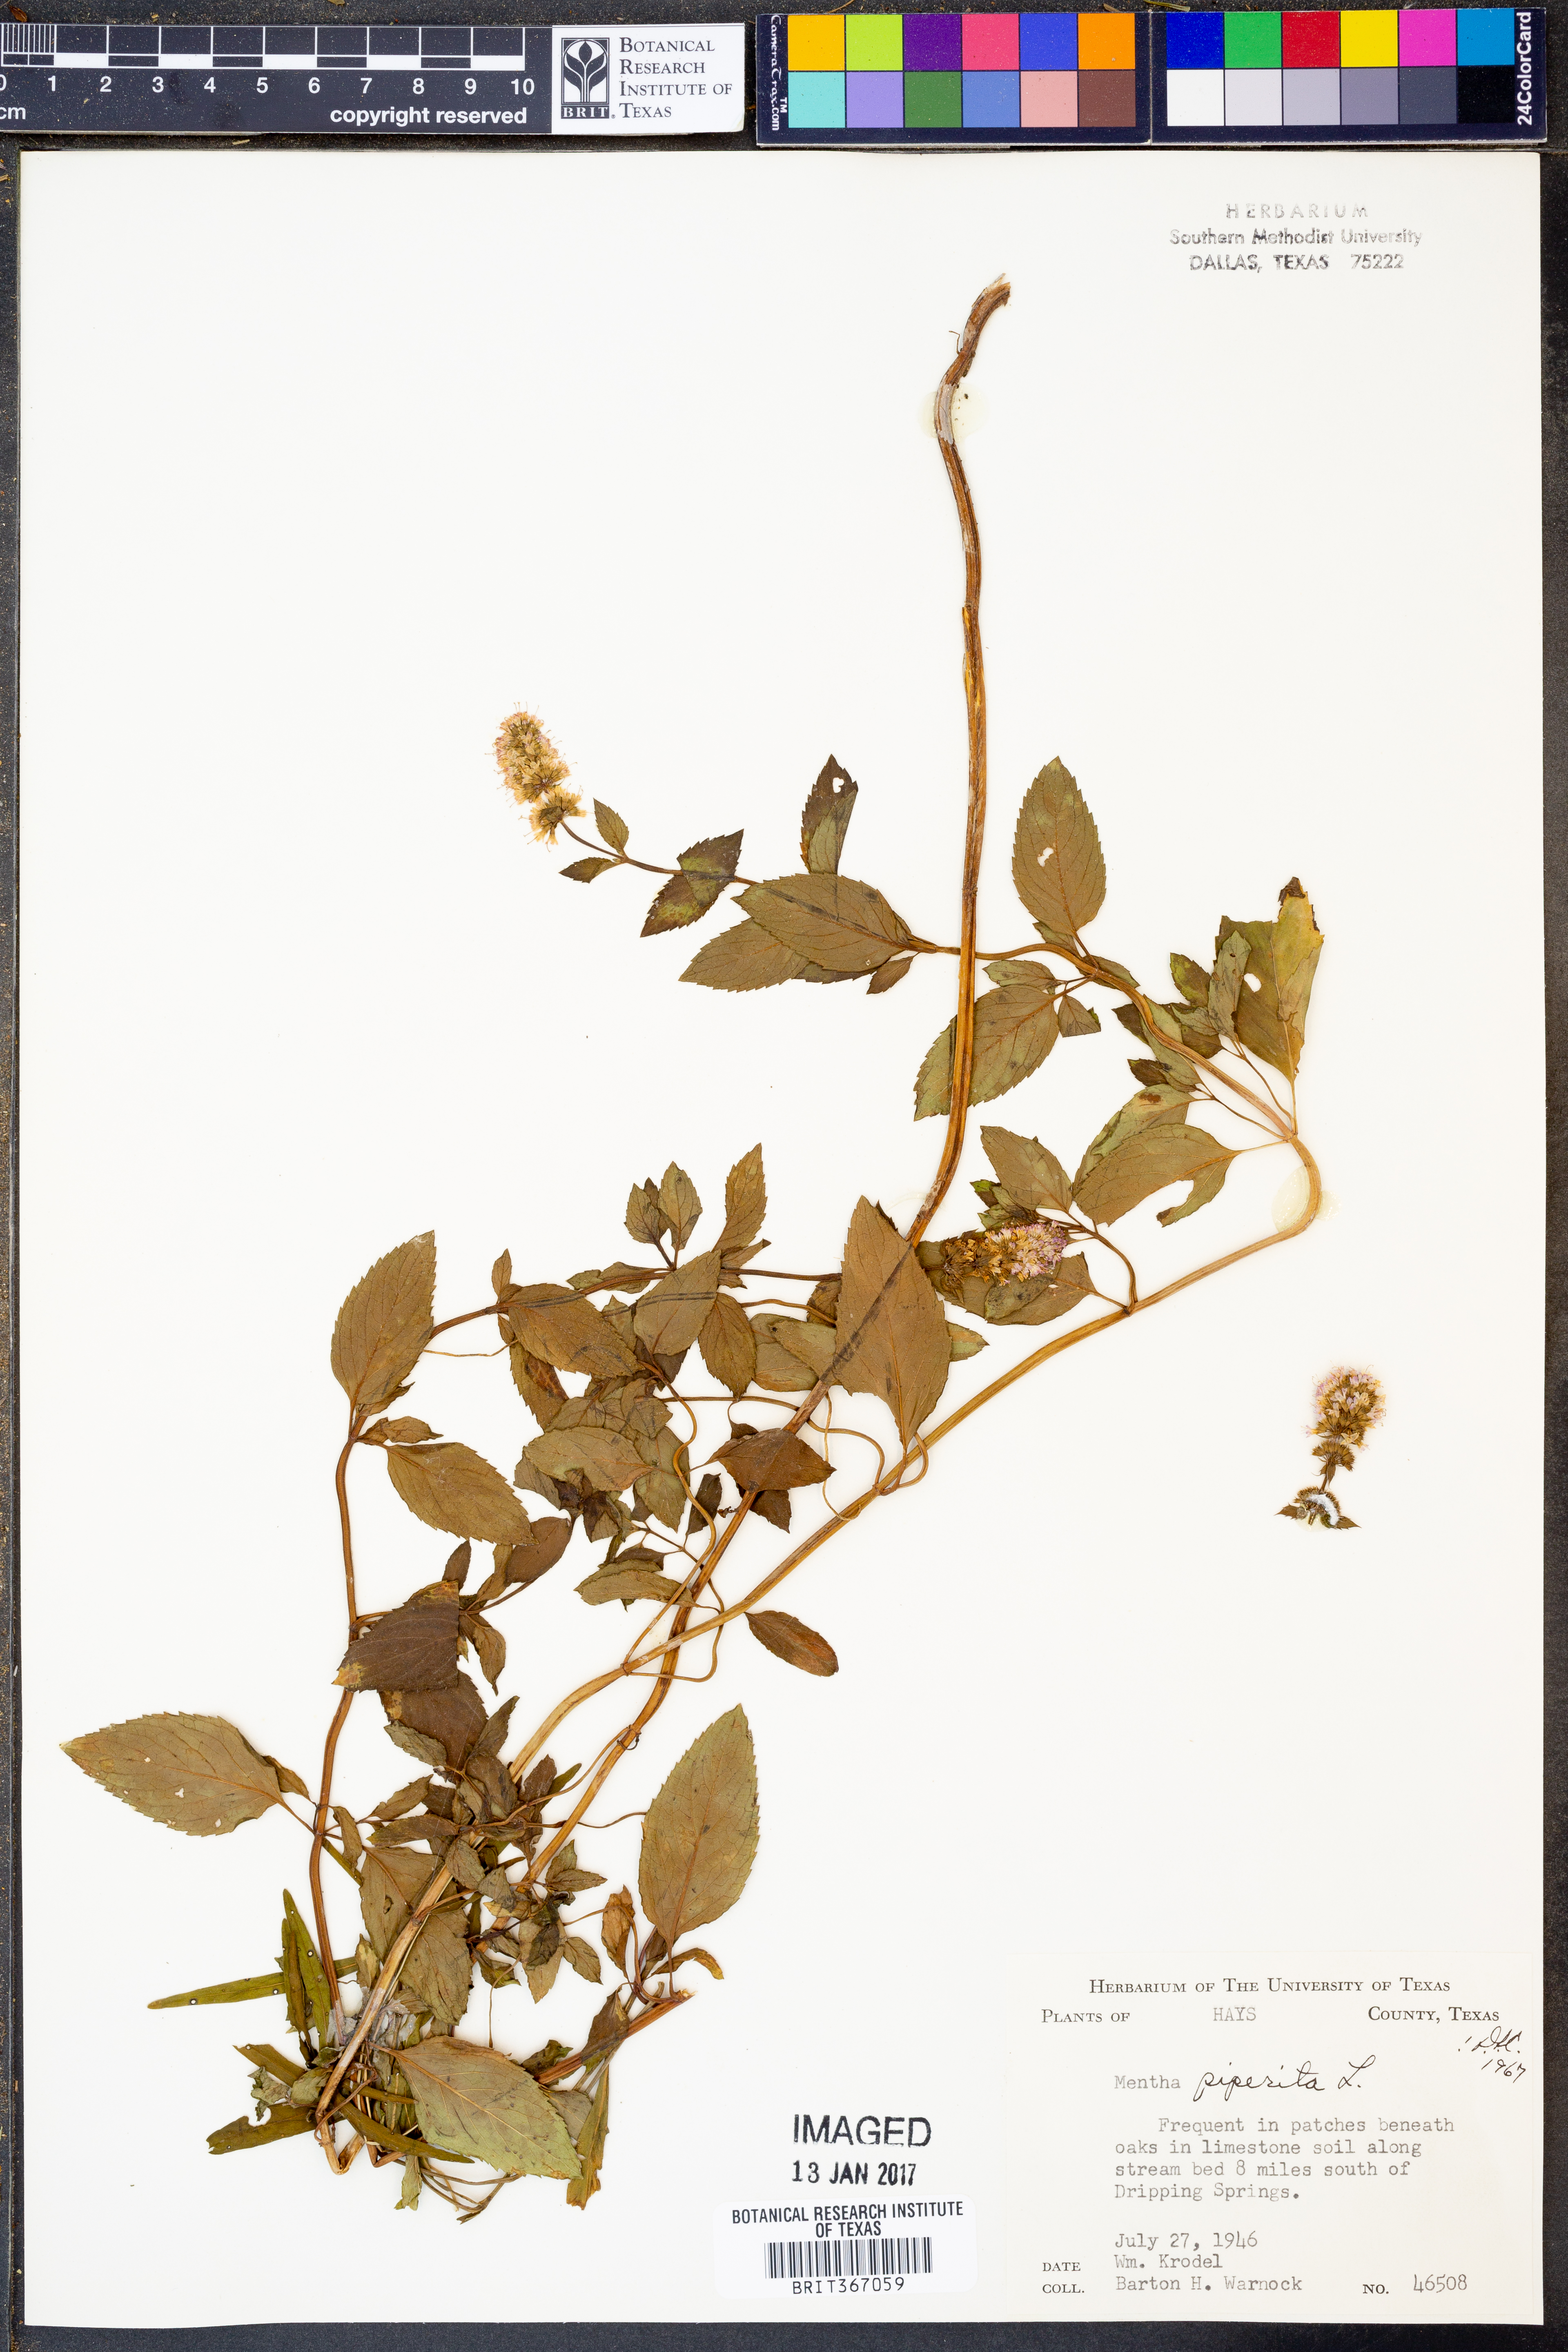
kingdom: Plantae
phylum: Tracheophyta
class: Magnoliopsida
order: Lamiales
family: Lamiaceae
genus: Mentha
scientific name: Mentha piperita
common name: Peppermint
